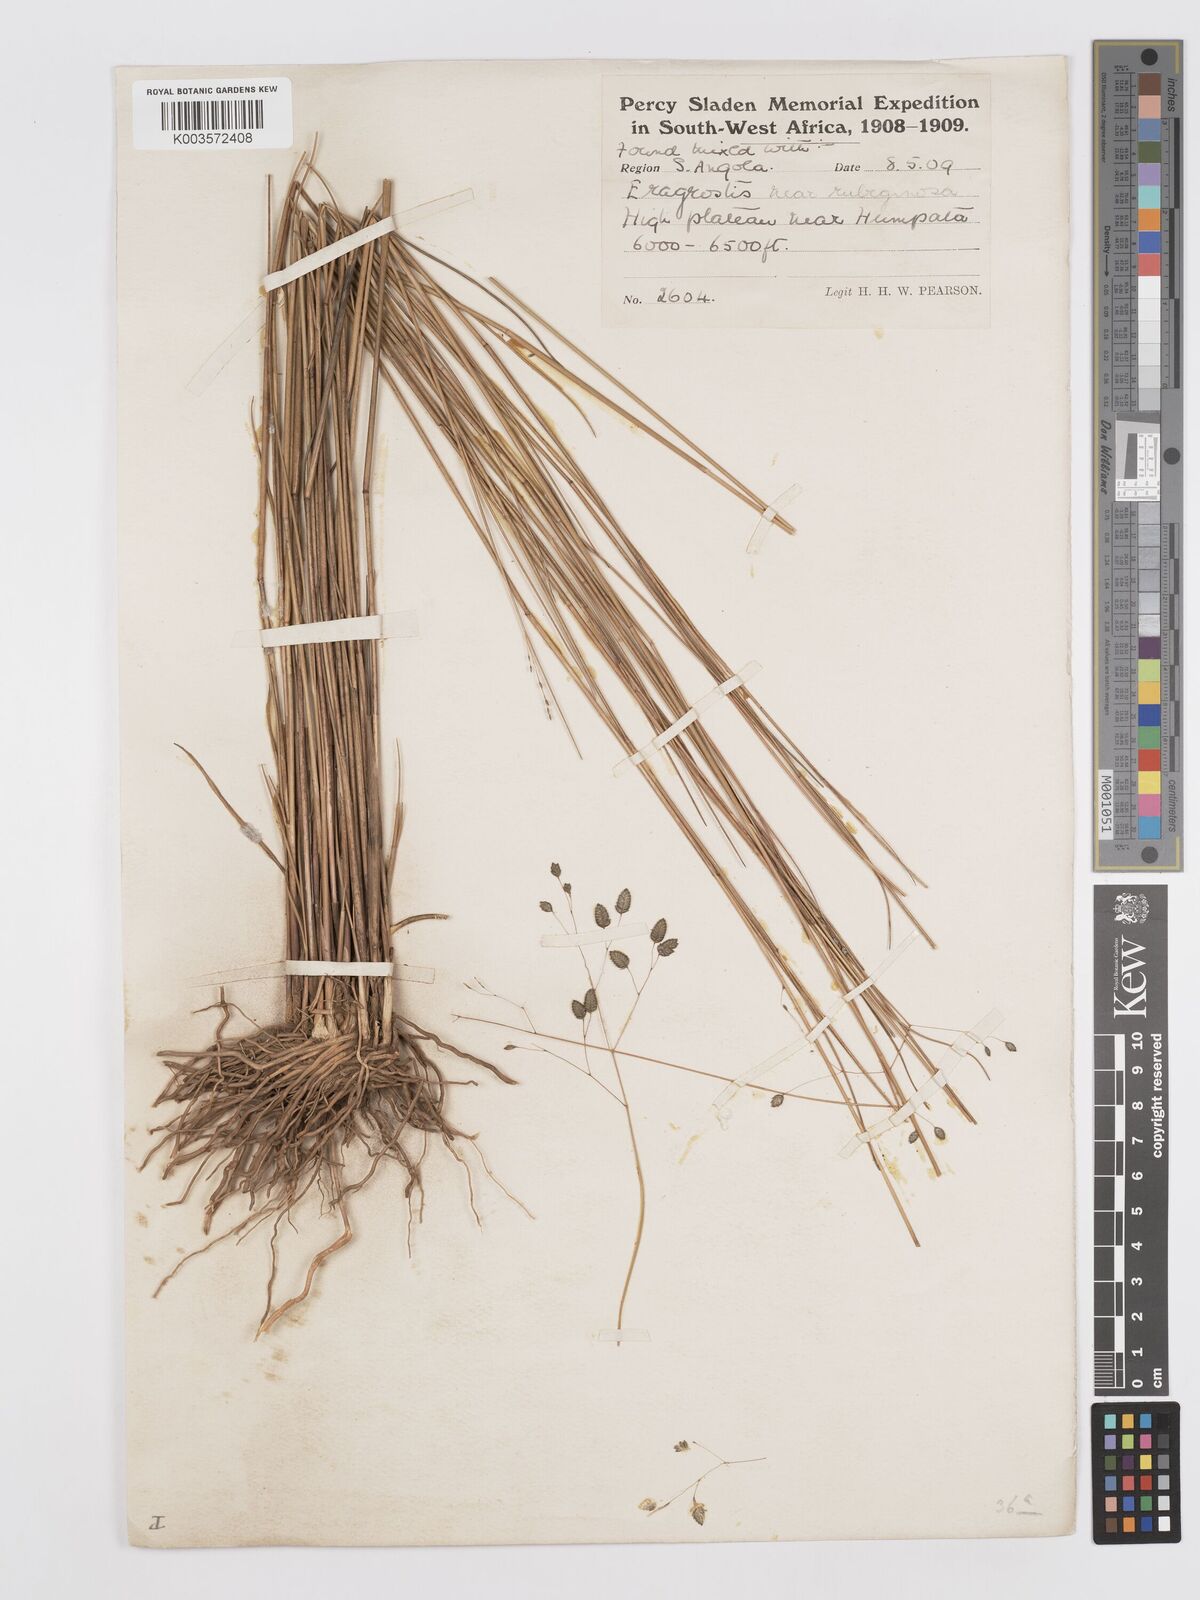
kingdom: Plantae
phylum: Tracheophyta
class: Liliopsida
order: Poales
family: Poaceae
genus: Eragrostis
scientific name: Eragrostis
